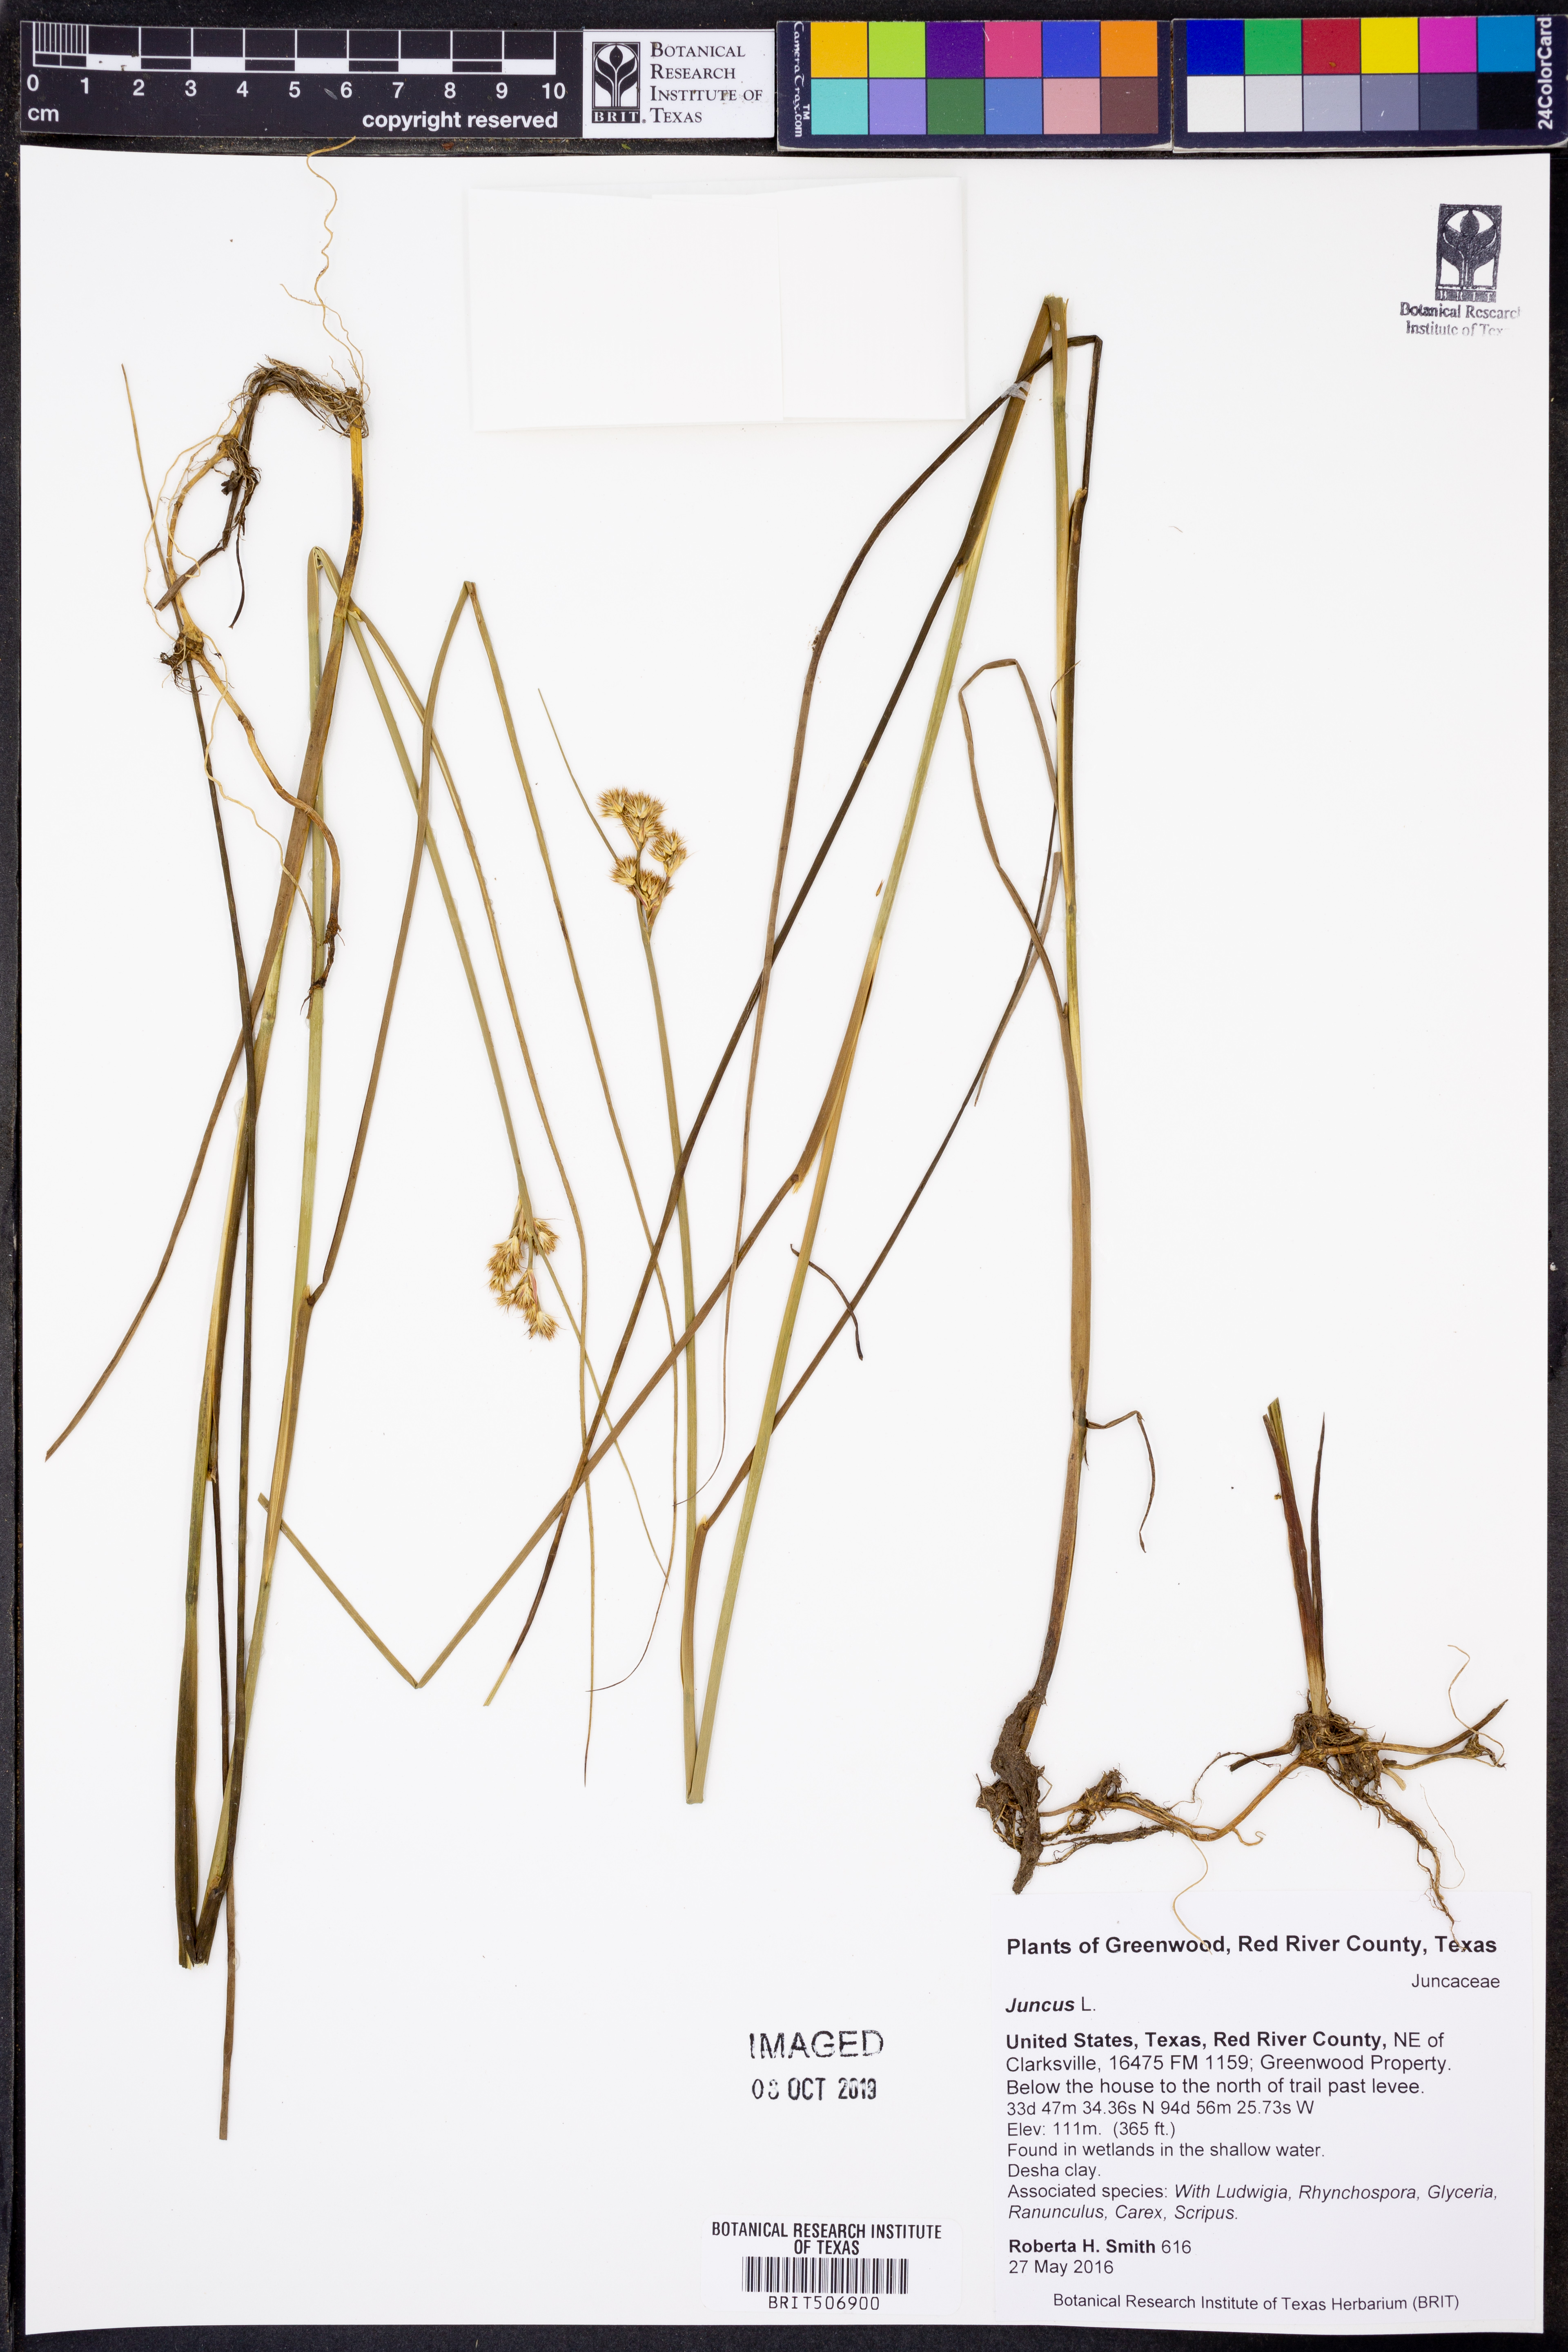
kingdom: Plantae
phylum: Tracheophyta
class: Liliopsida
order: Poales
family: Juncaceae
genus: Juncus
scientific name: Juncus acuminatus
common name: Knotty-leaved rush
